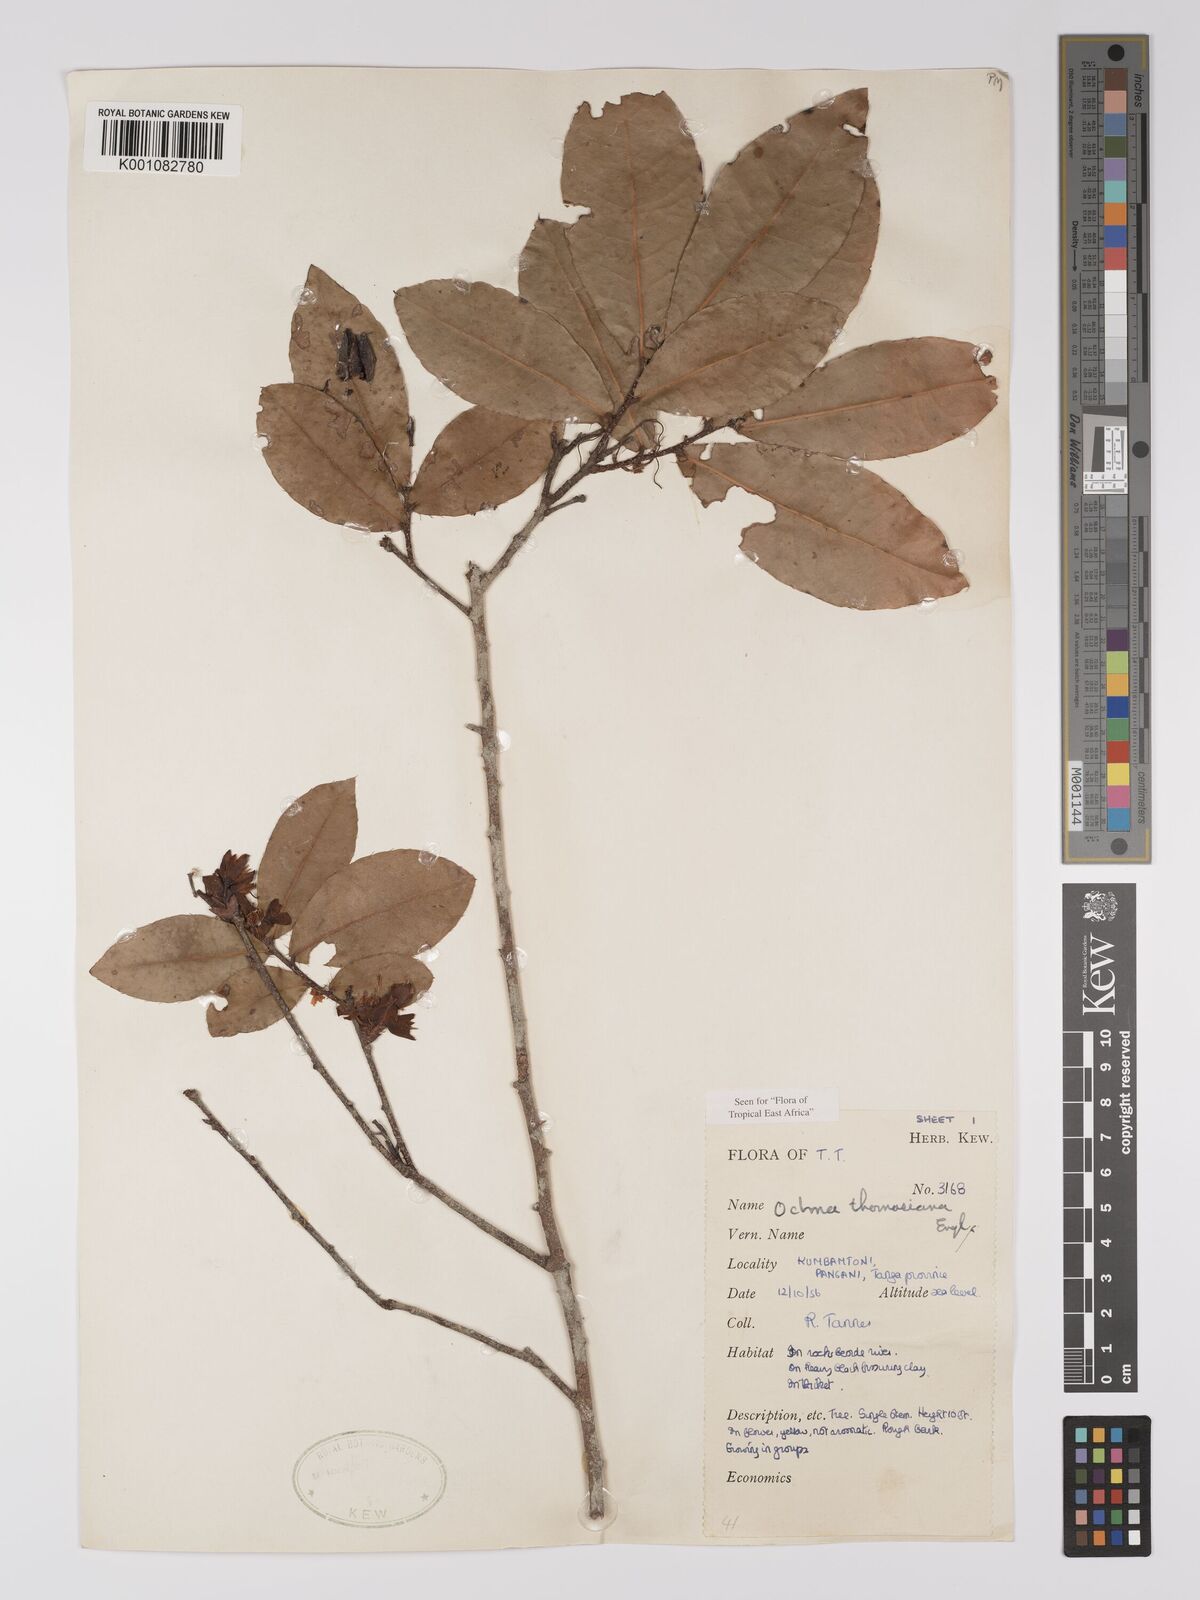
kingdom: Plantae
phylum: Tracheophyta
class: Magnoliopsida
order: Malpighiales
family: Ochnaceae
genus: Ochna
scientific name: Ochna thomasiana
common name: Thomas' bird's-eye bush
